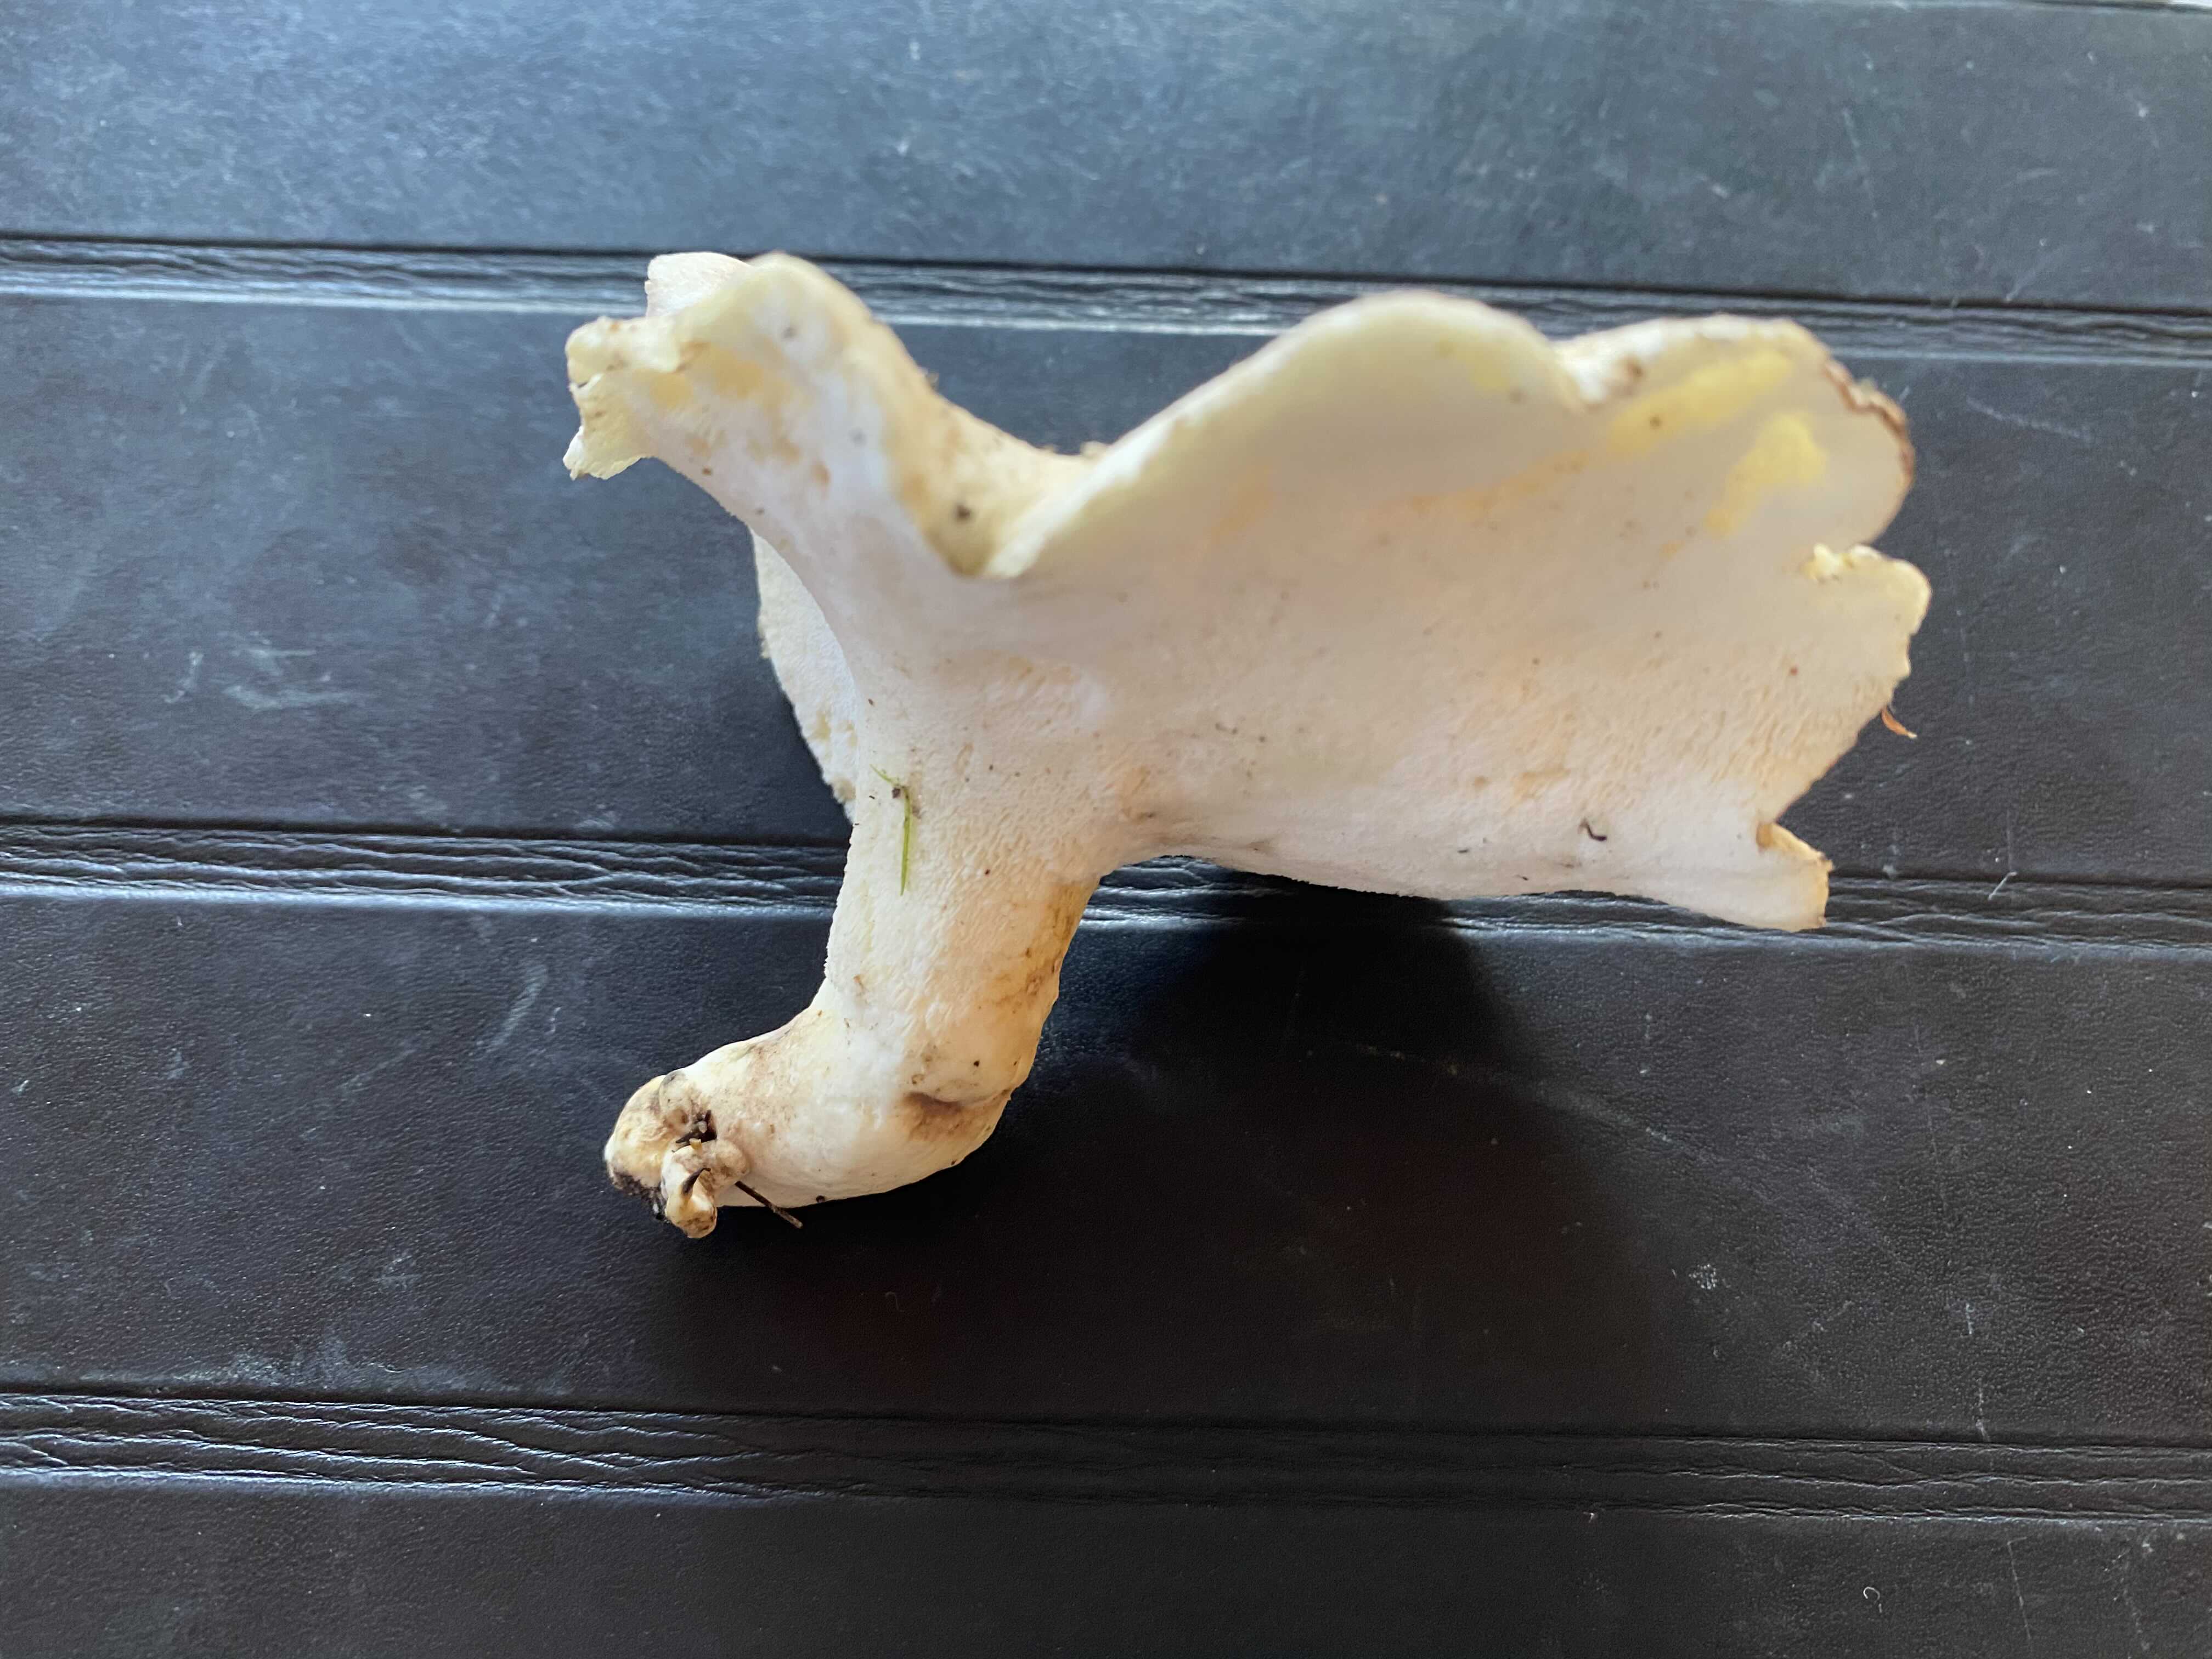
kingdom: Fungi
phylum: Basidiomycota
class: Agaricomycetes
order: Russulales
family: Albatrellaceae
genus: Albatrellus
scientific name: Albatrellus ovinus
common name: hvidlig fåreporesvamp
